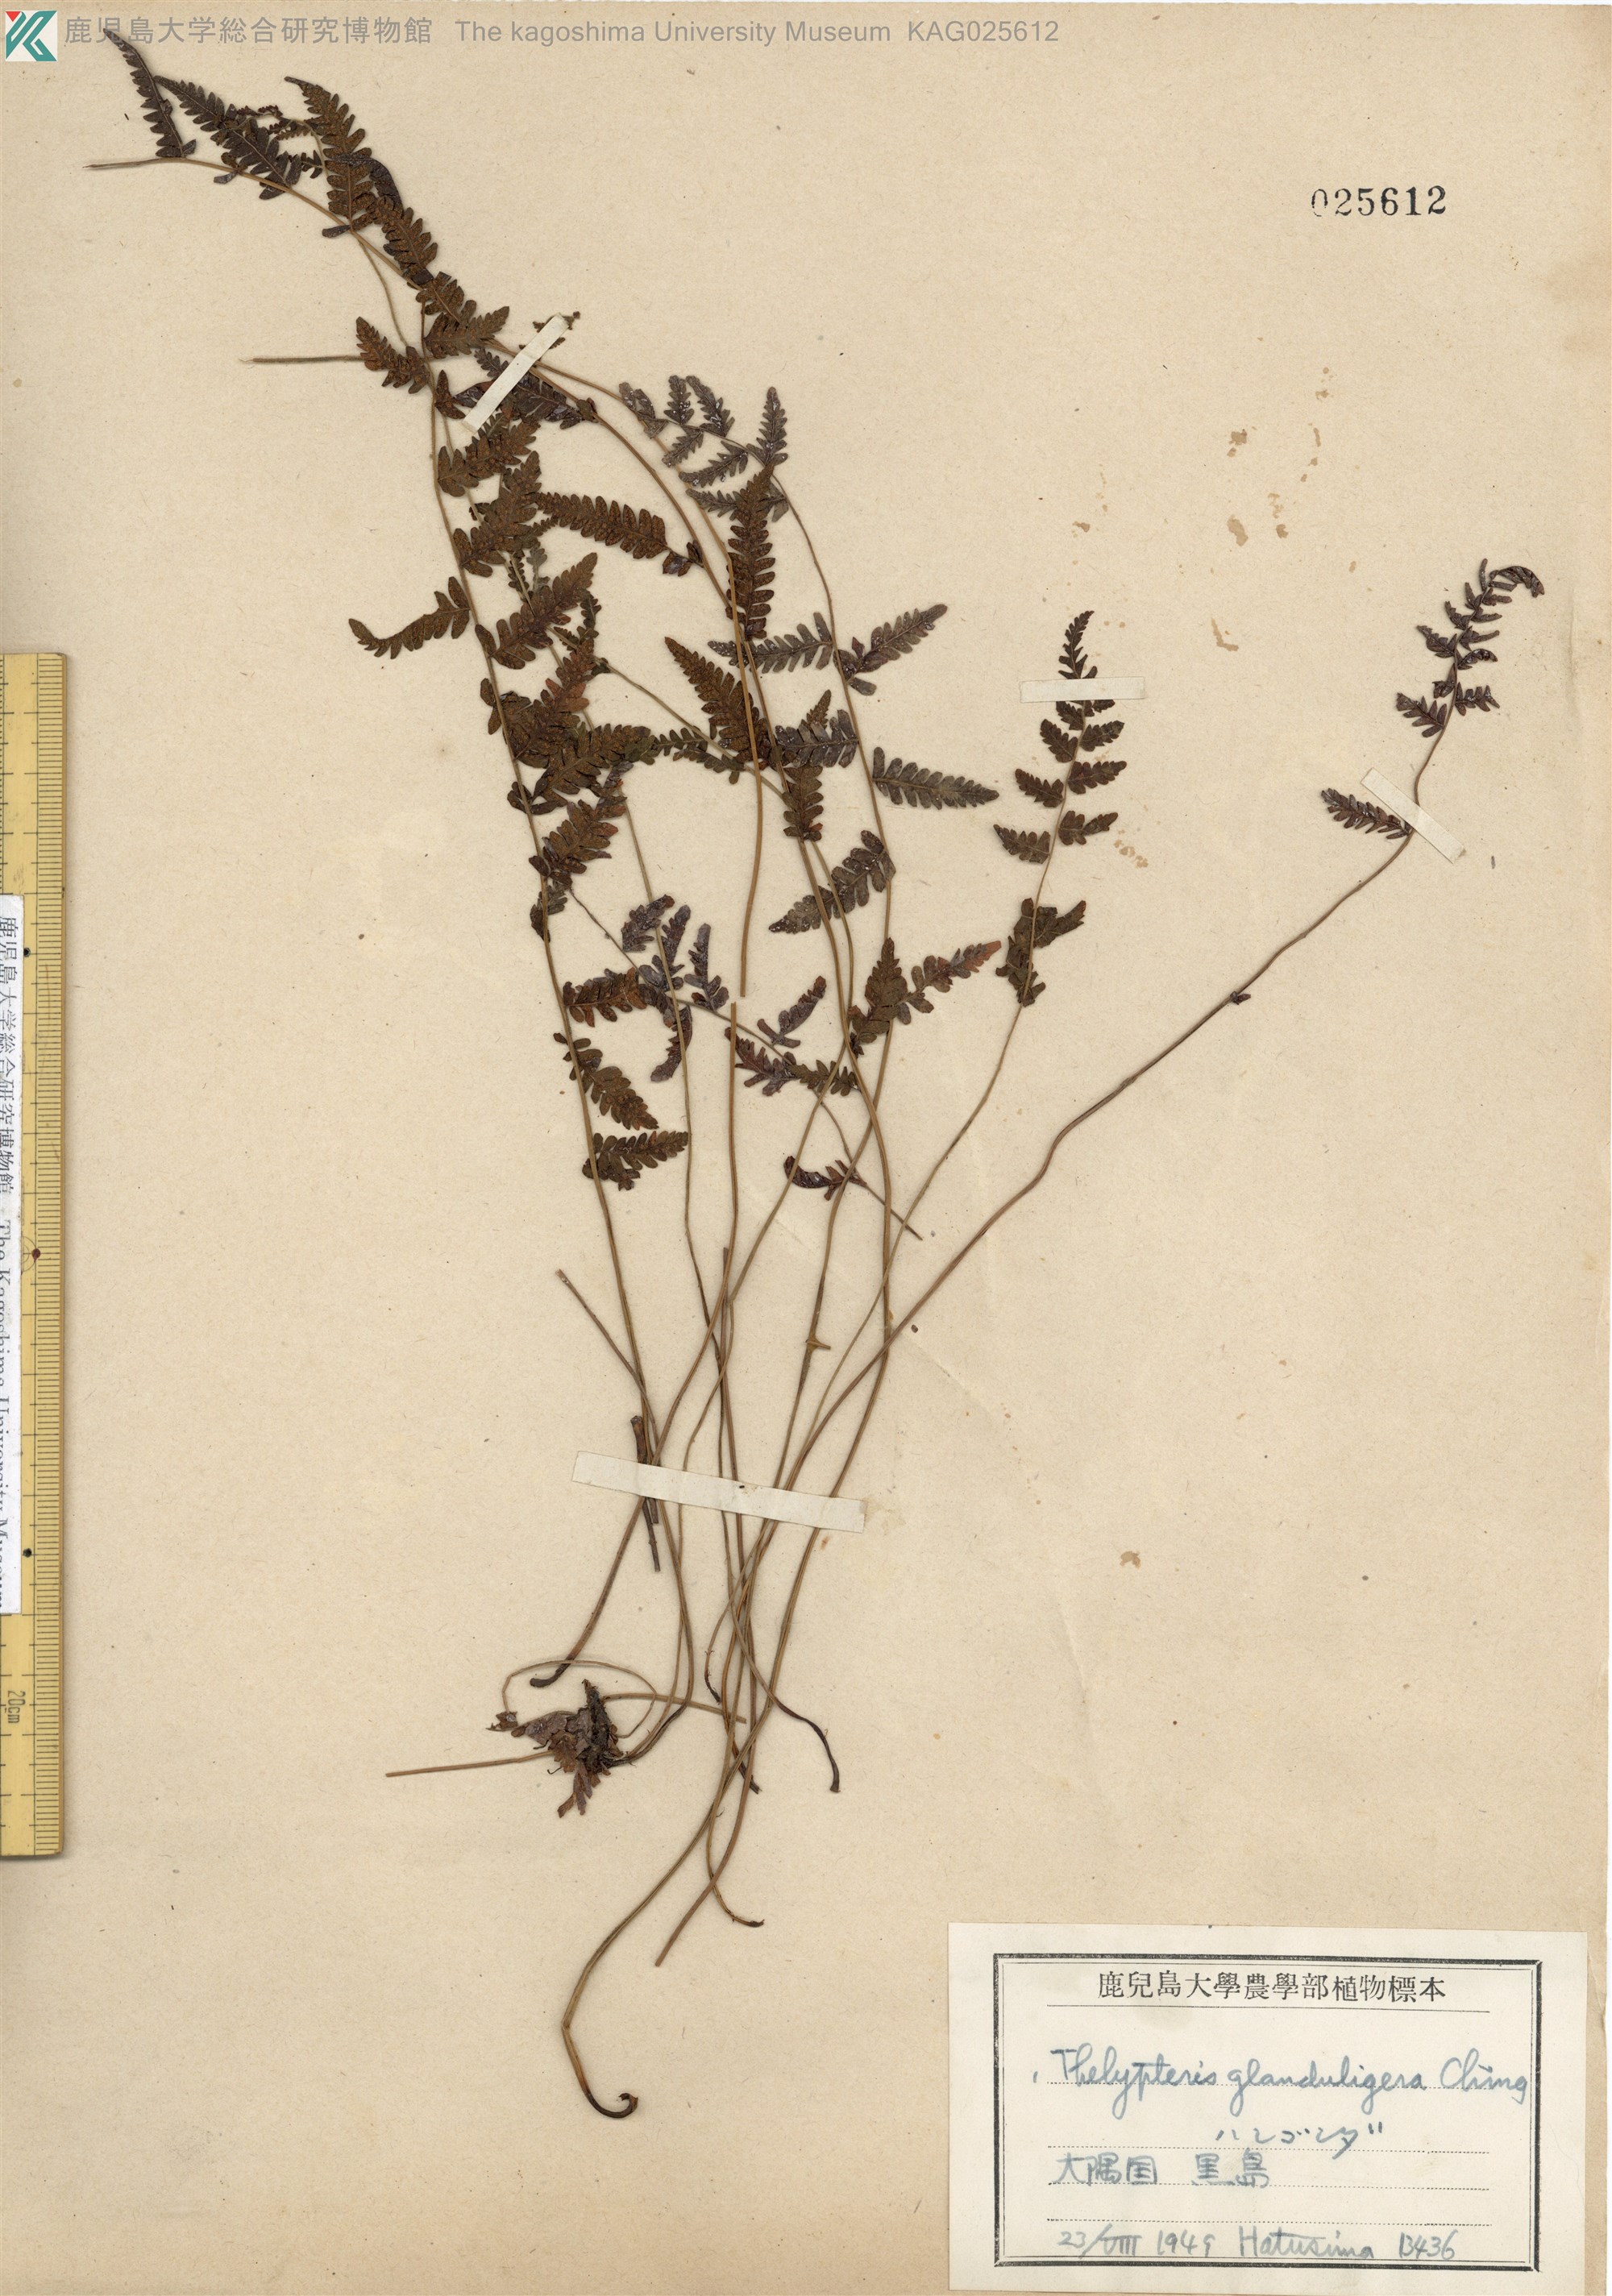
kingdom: Plantae
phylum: Tracheophyta
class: Polypodiopsida
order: Polypodiales
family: Thelypteridaceae
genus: Amauropelta
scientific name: Amauropelta angustifrons
